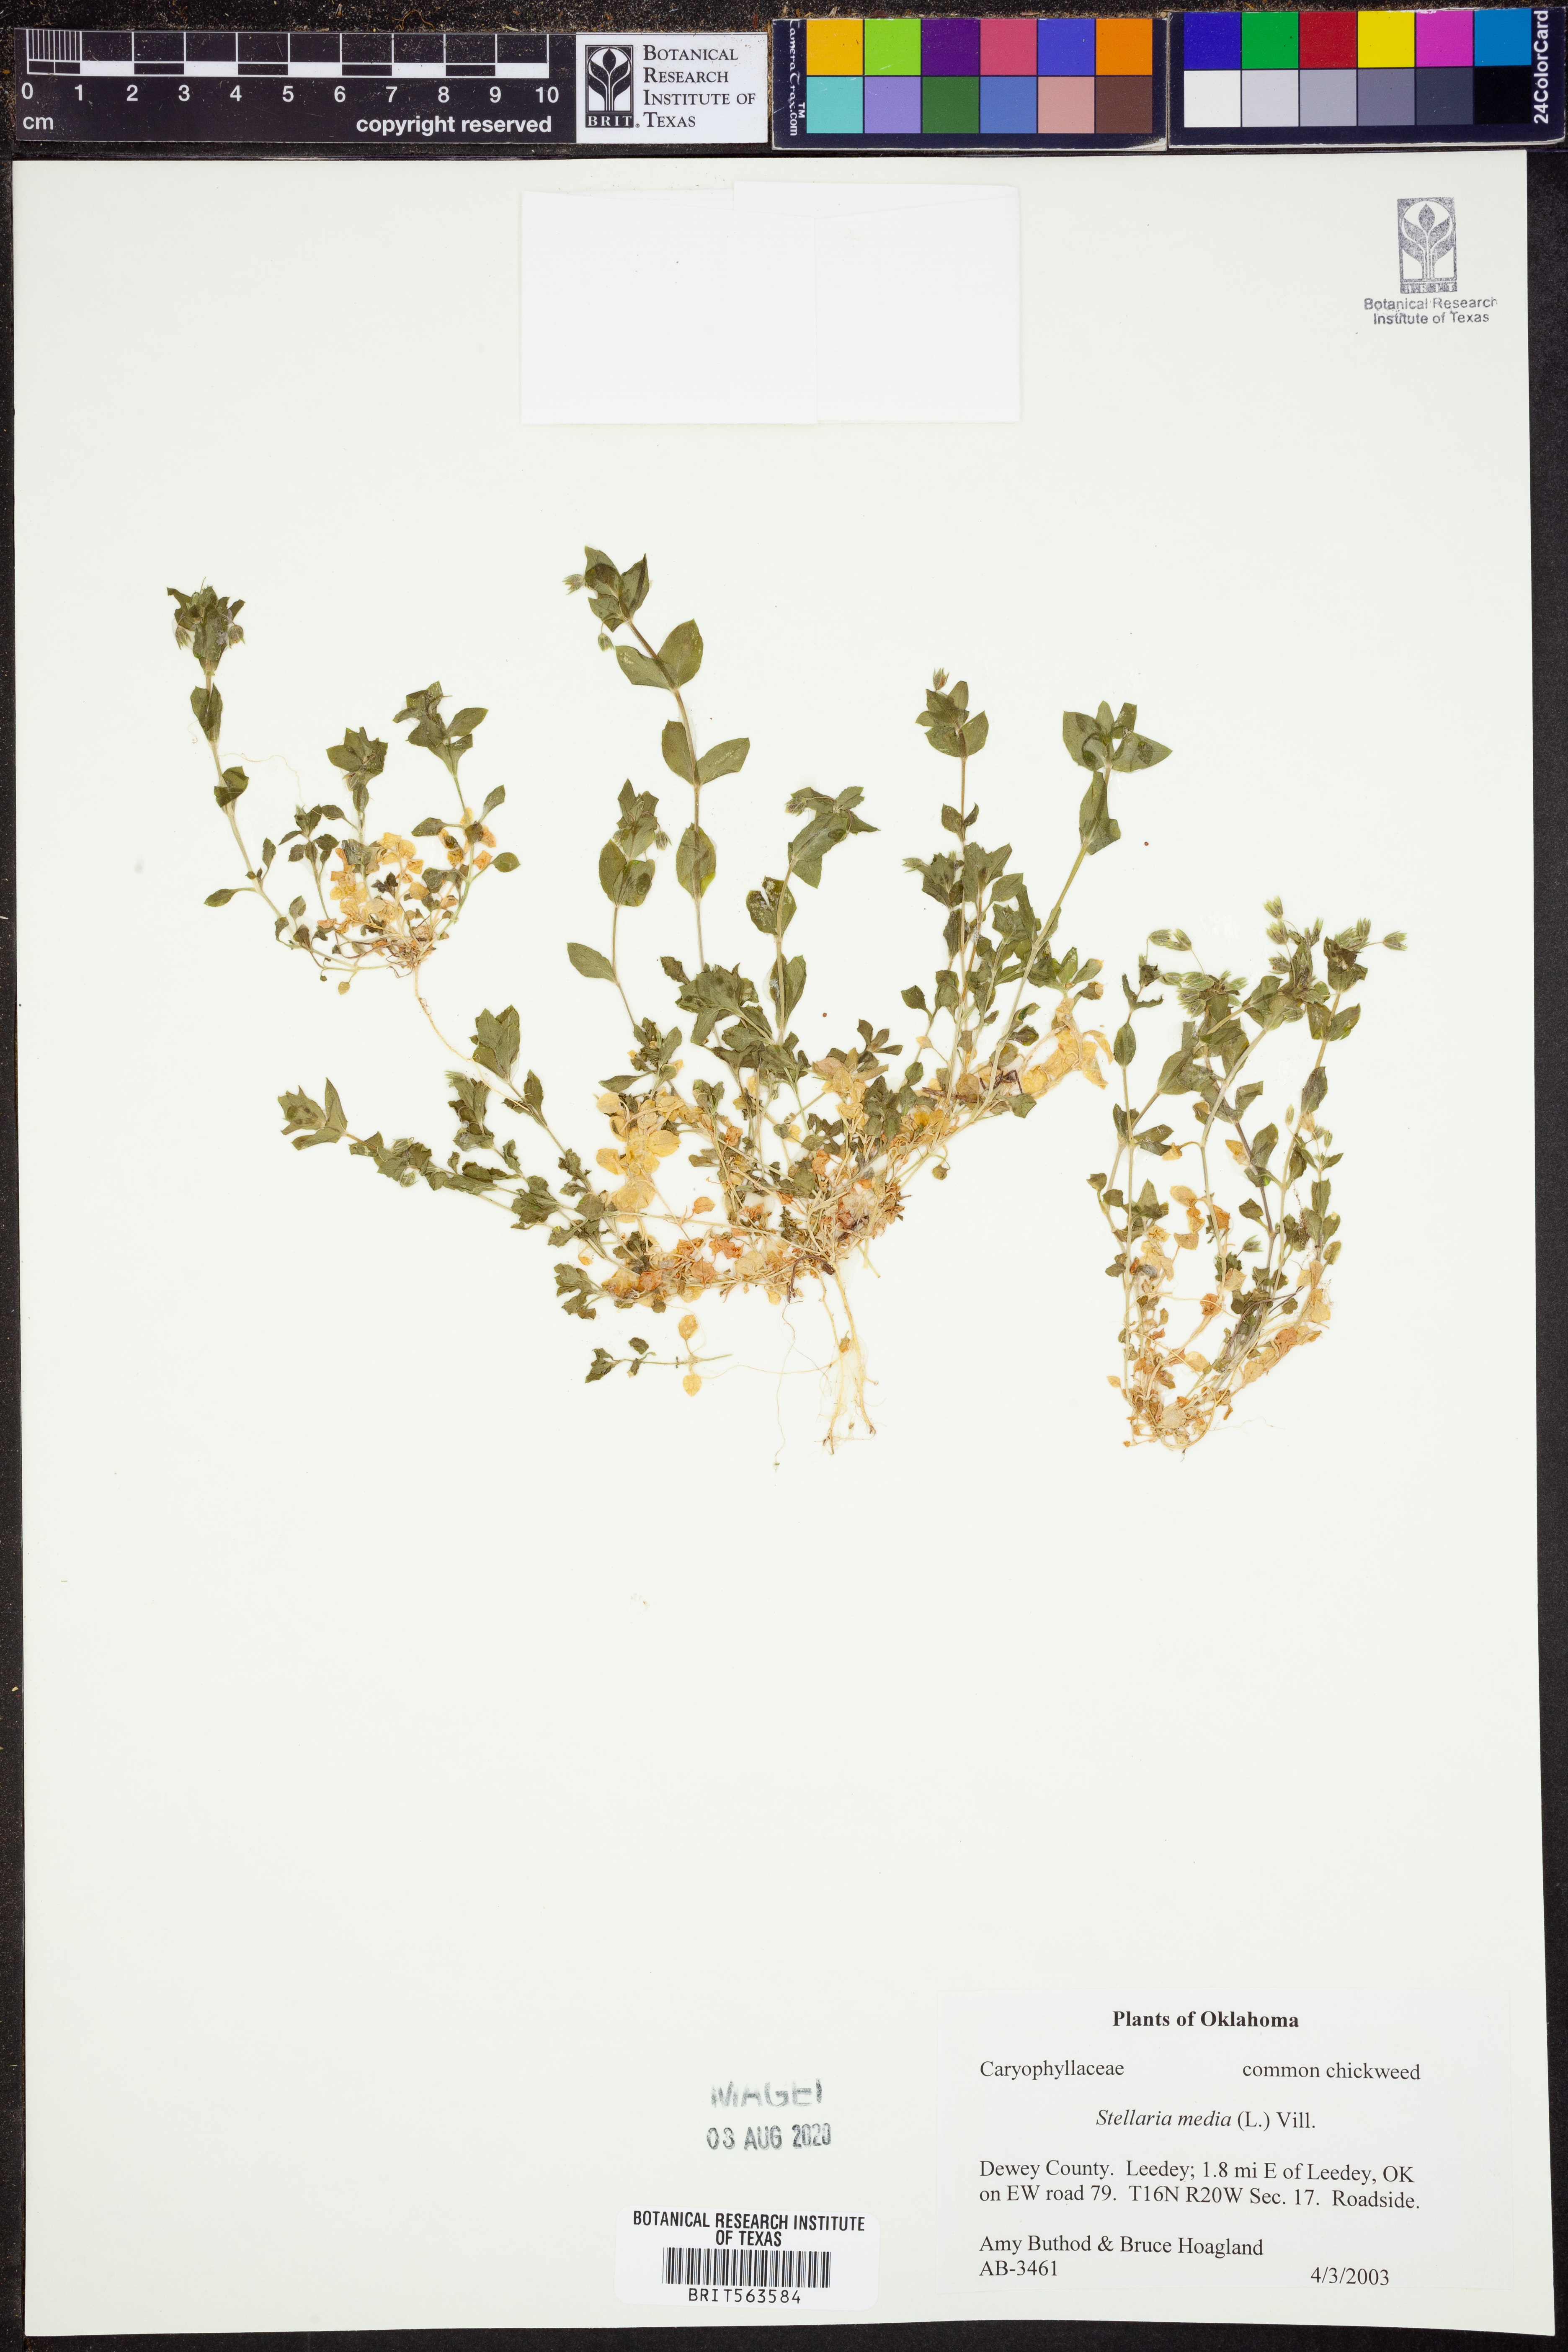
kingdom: Plantae
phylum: Tracheophyta
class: Magnoliopsida
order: Caryophyllales
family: Caryophyllaceae
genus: Stellaria
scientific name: Stellaria media
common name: Common chickweed
